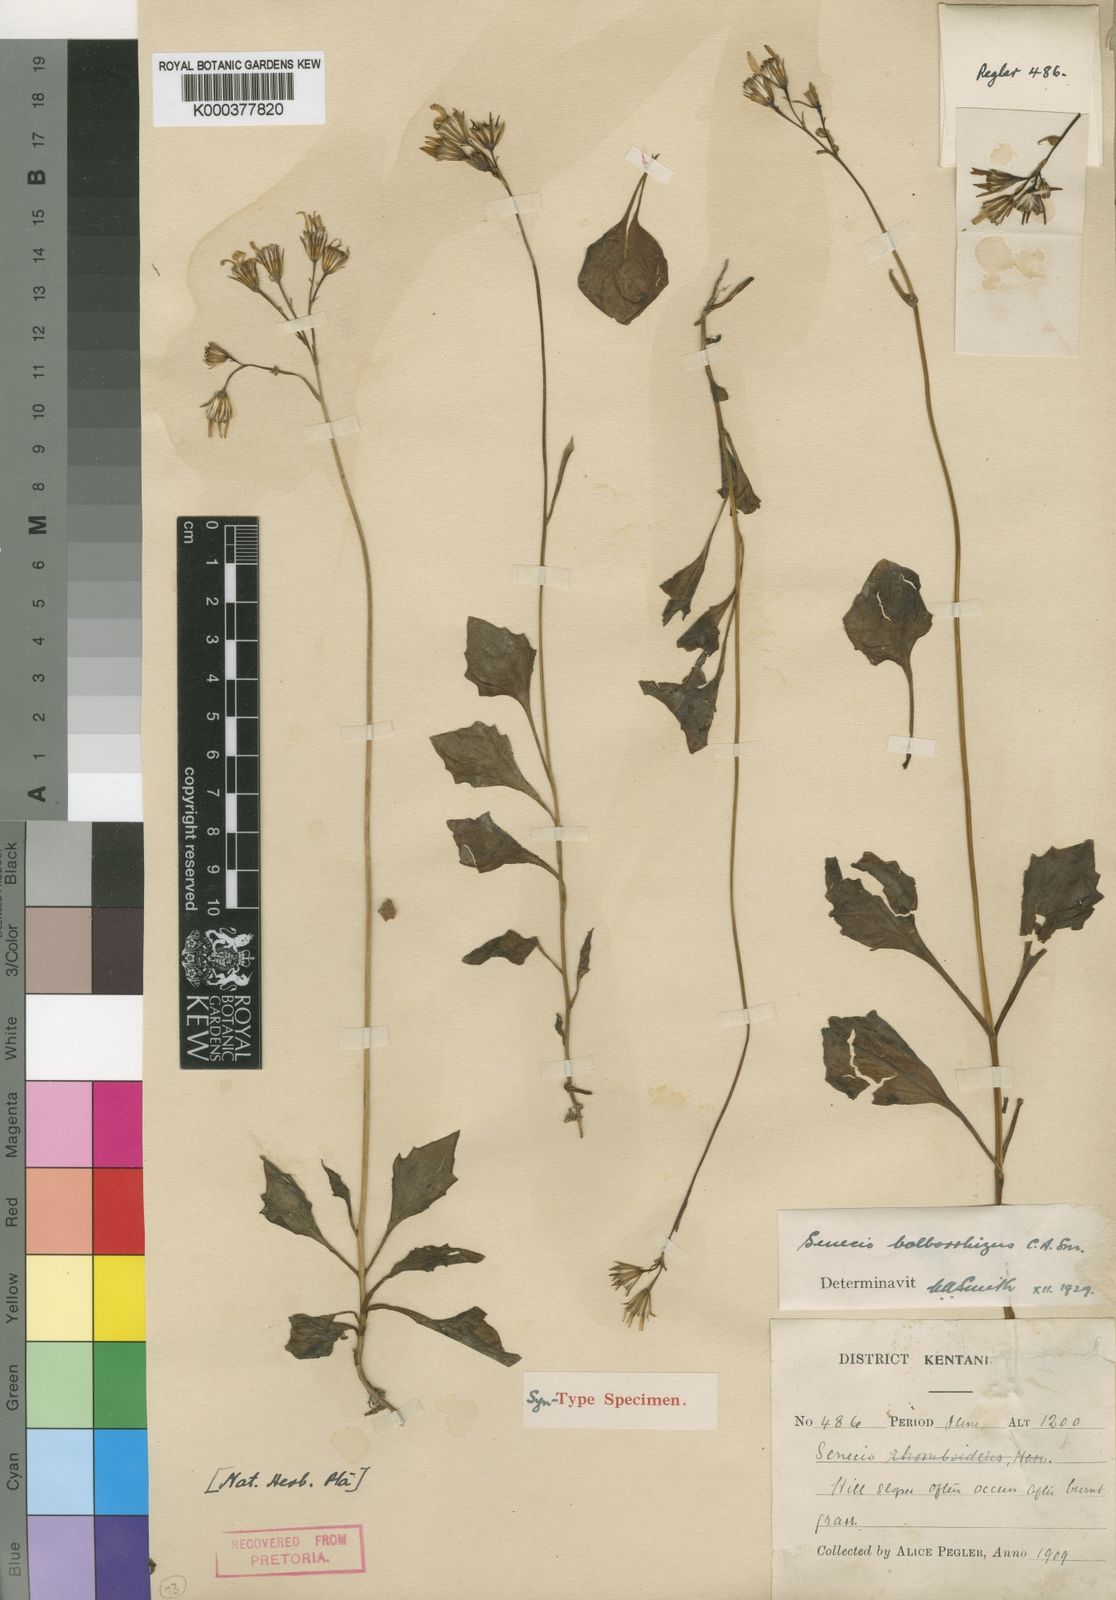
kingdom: Plantae
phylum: Tracheophyta
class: Magnoliopsida
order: Asterales
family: Asteraceae
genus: Senecio
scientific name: Senecio ruwenzoriensis
